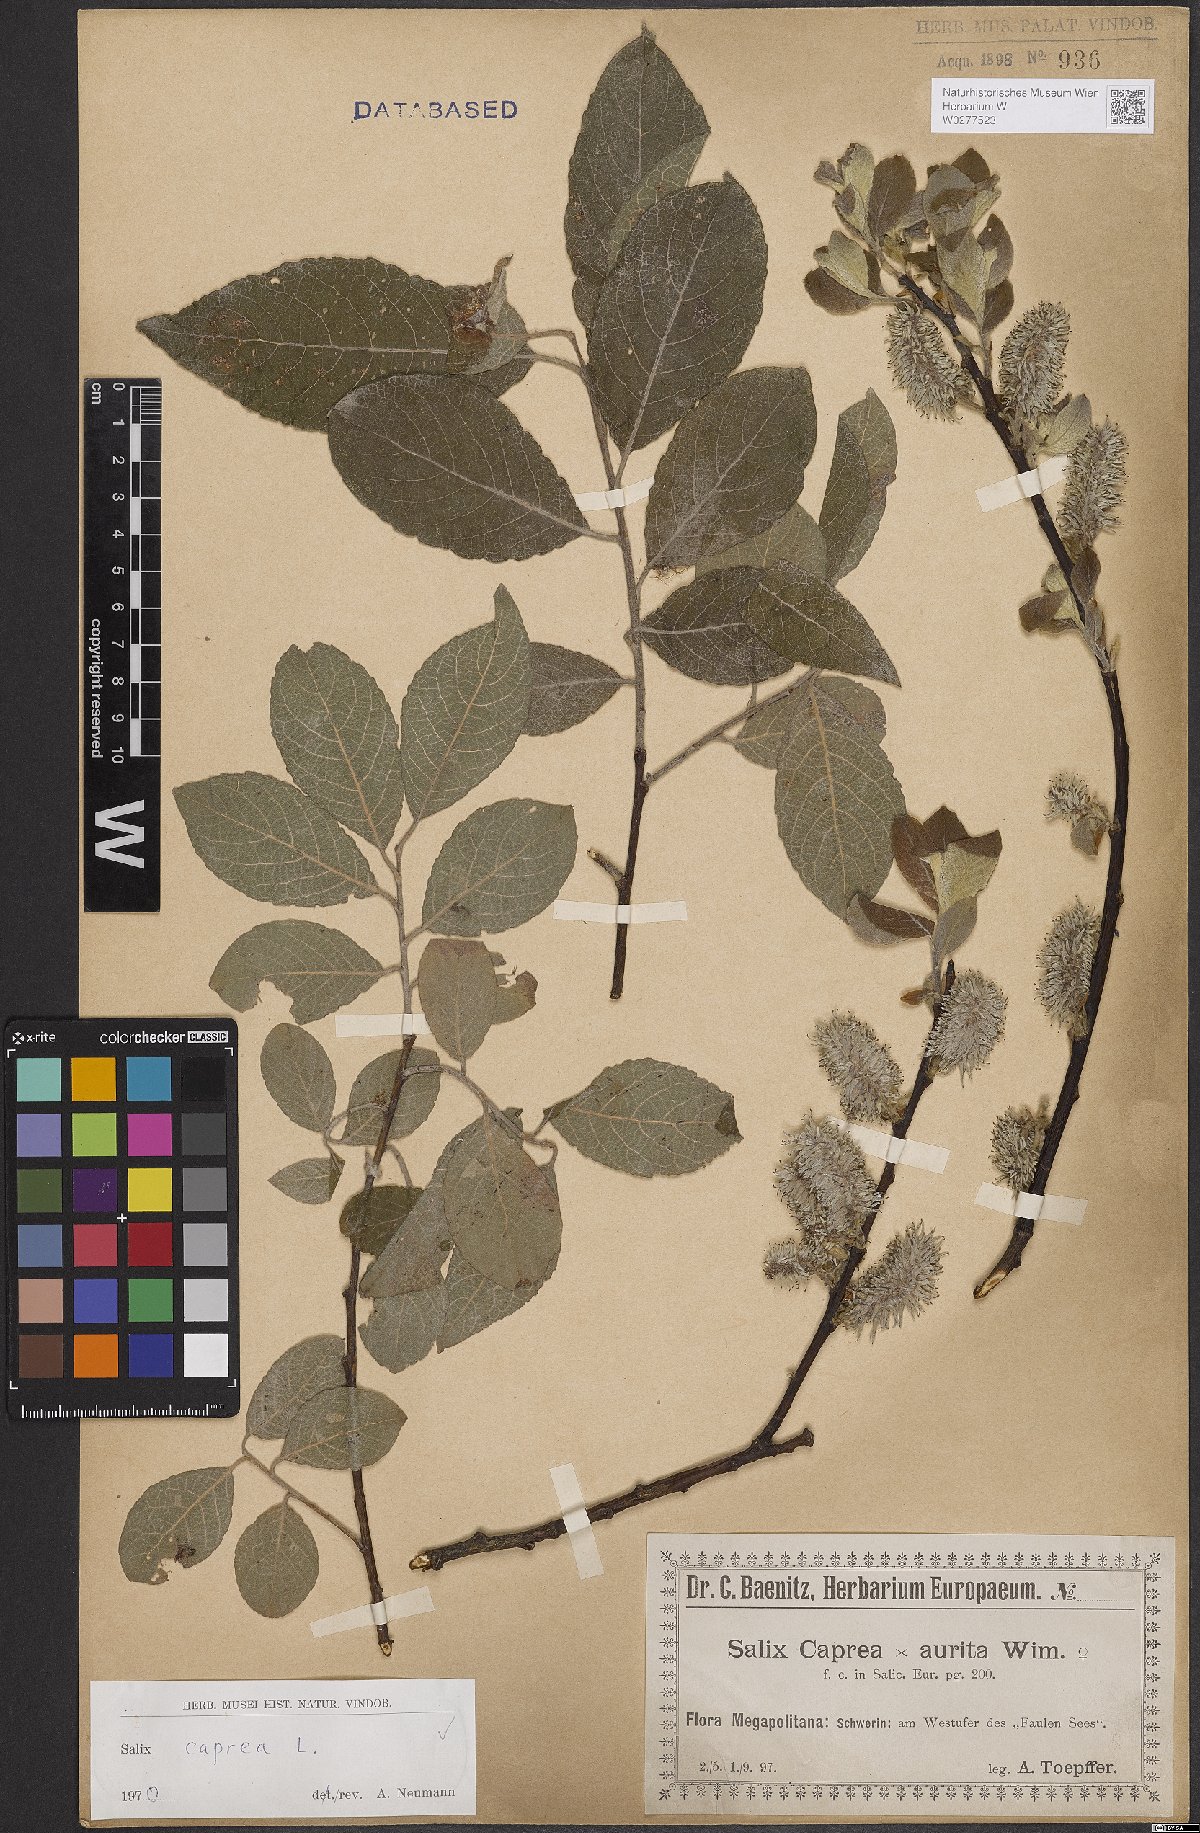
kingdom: Plantae
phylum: Tracheophyta
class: Magnoliopsida
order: Malpighiales
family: Salicaceae
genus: Salix
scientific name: Salix caprea
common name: Goat willow
